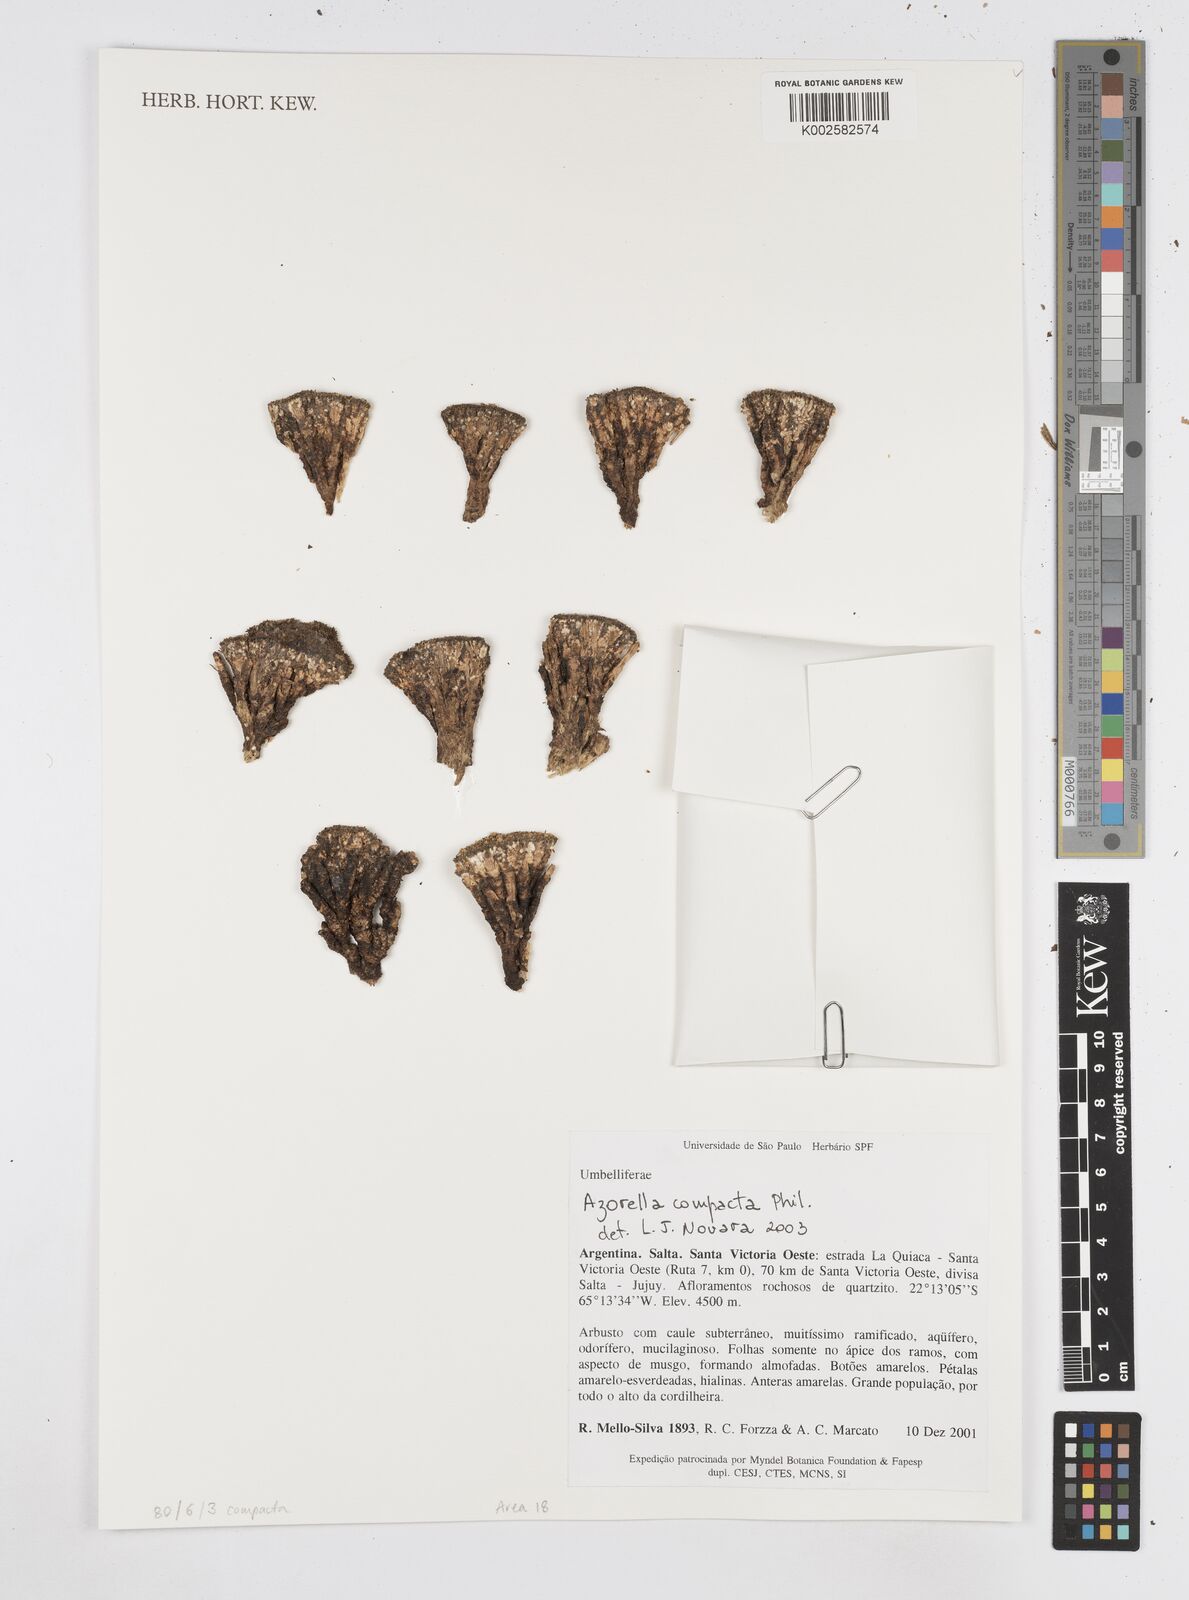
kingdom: Plantae
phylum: Tracheophyta
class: Magnoliopsida
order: Apiales
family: Apiaceae
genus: Azorella
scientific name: Azorella compacta
